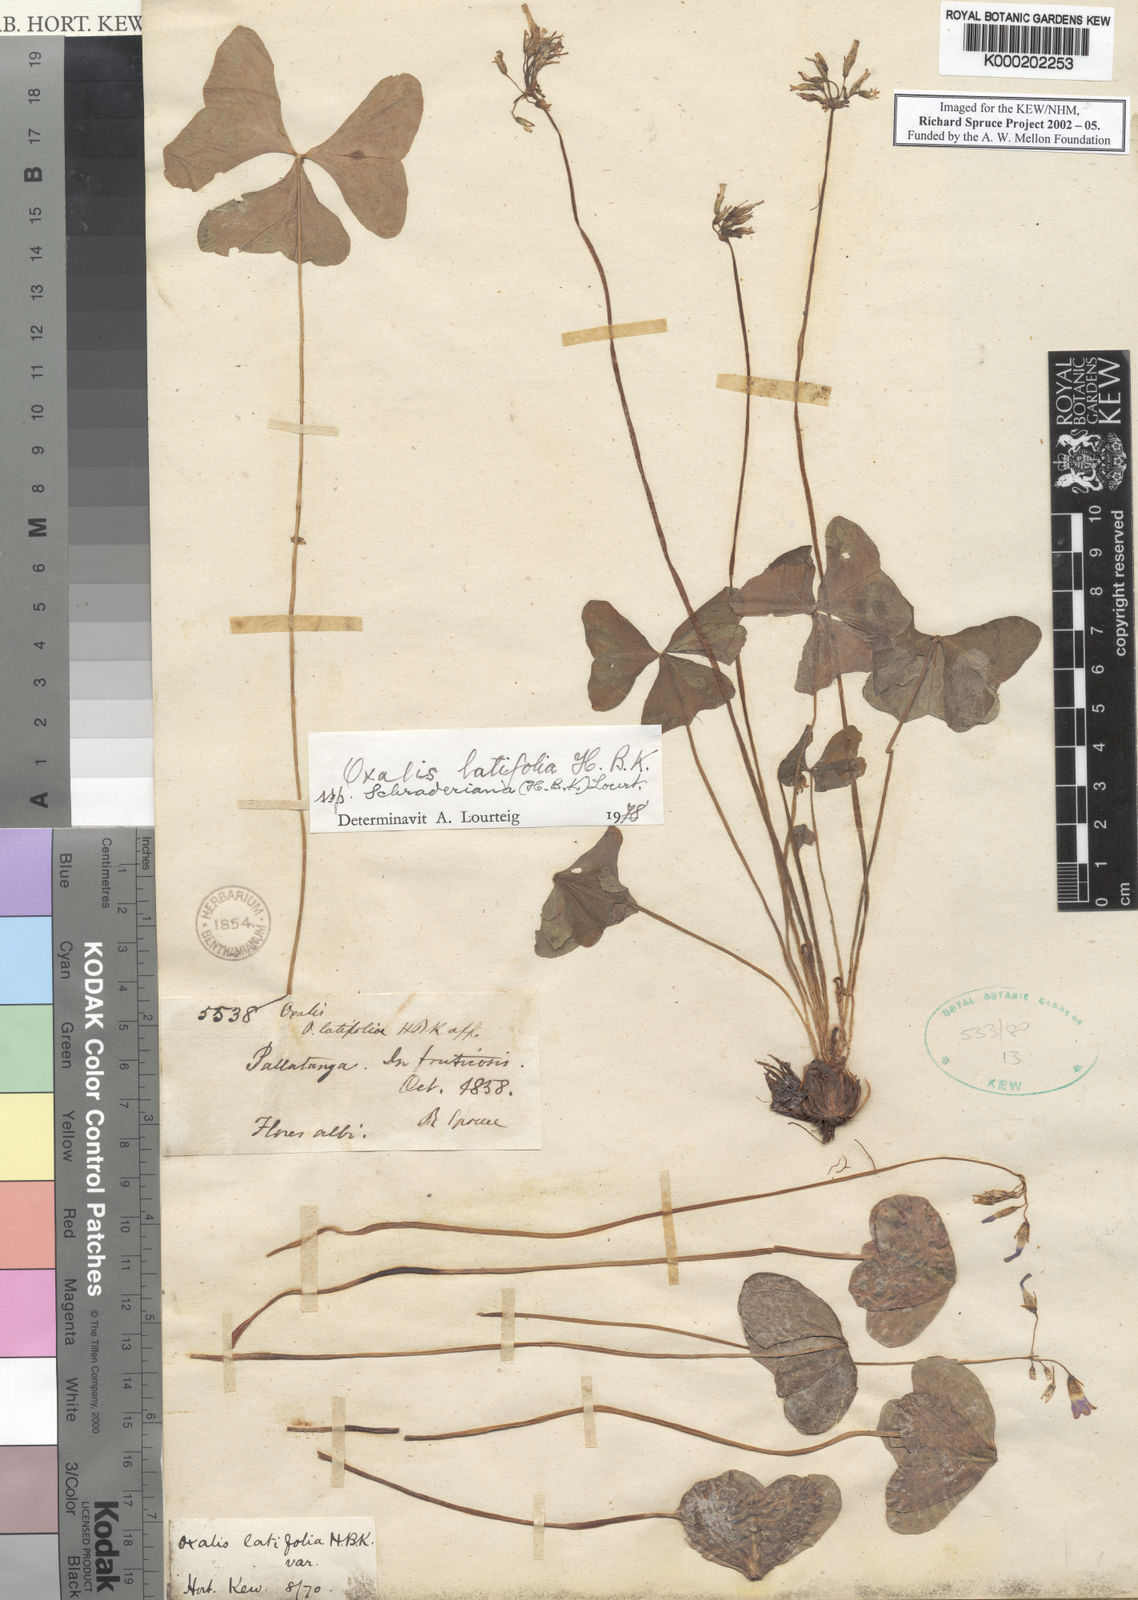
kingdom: Plantae
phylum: Tracheophyta
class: Magnoliopsida
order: Oxalidales
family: Oxalidaceae
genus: Oxalis
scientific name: Oxalis latifolia
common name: Garden pink-sorrel
